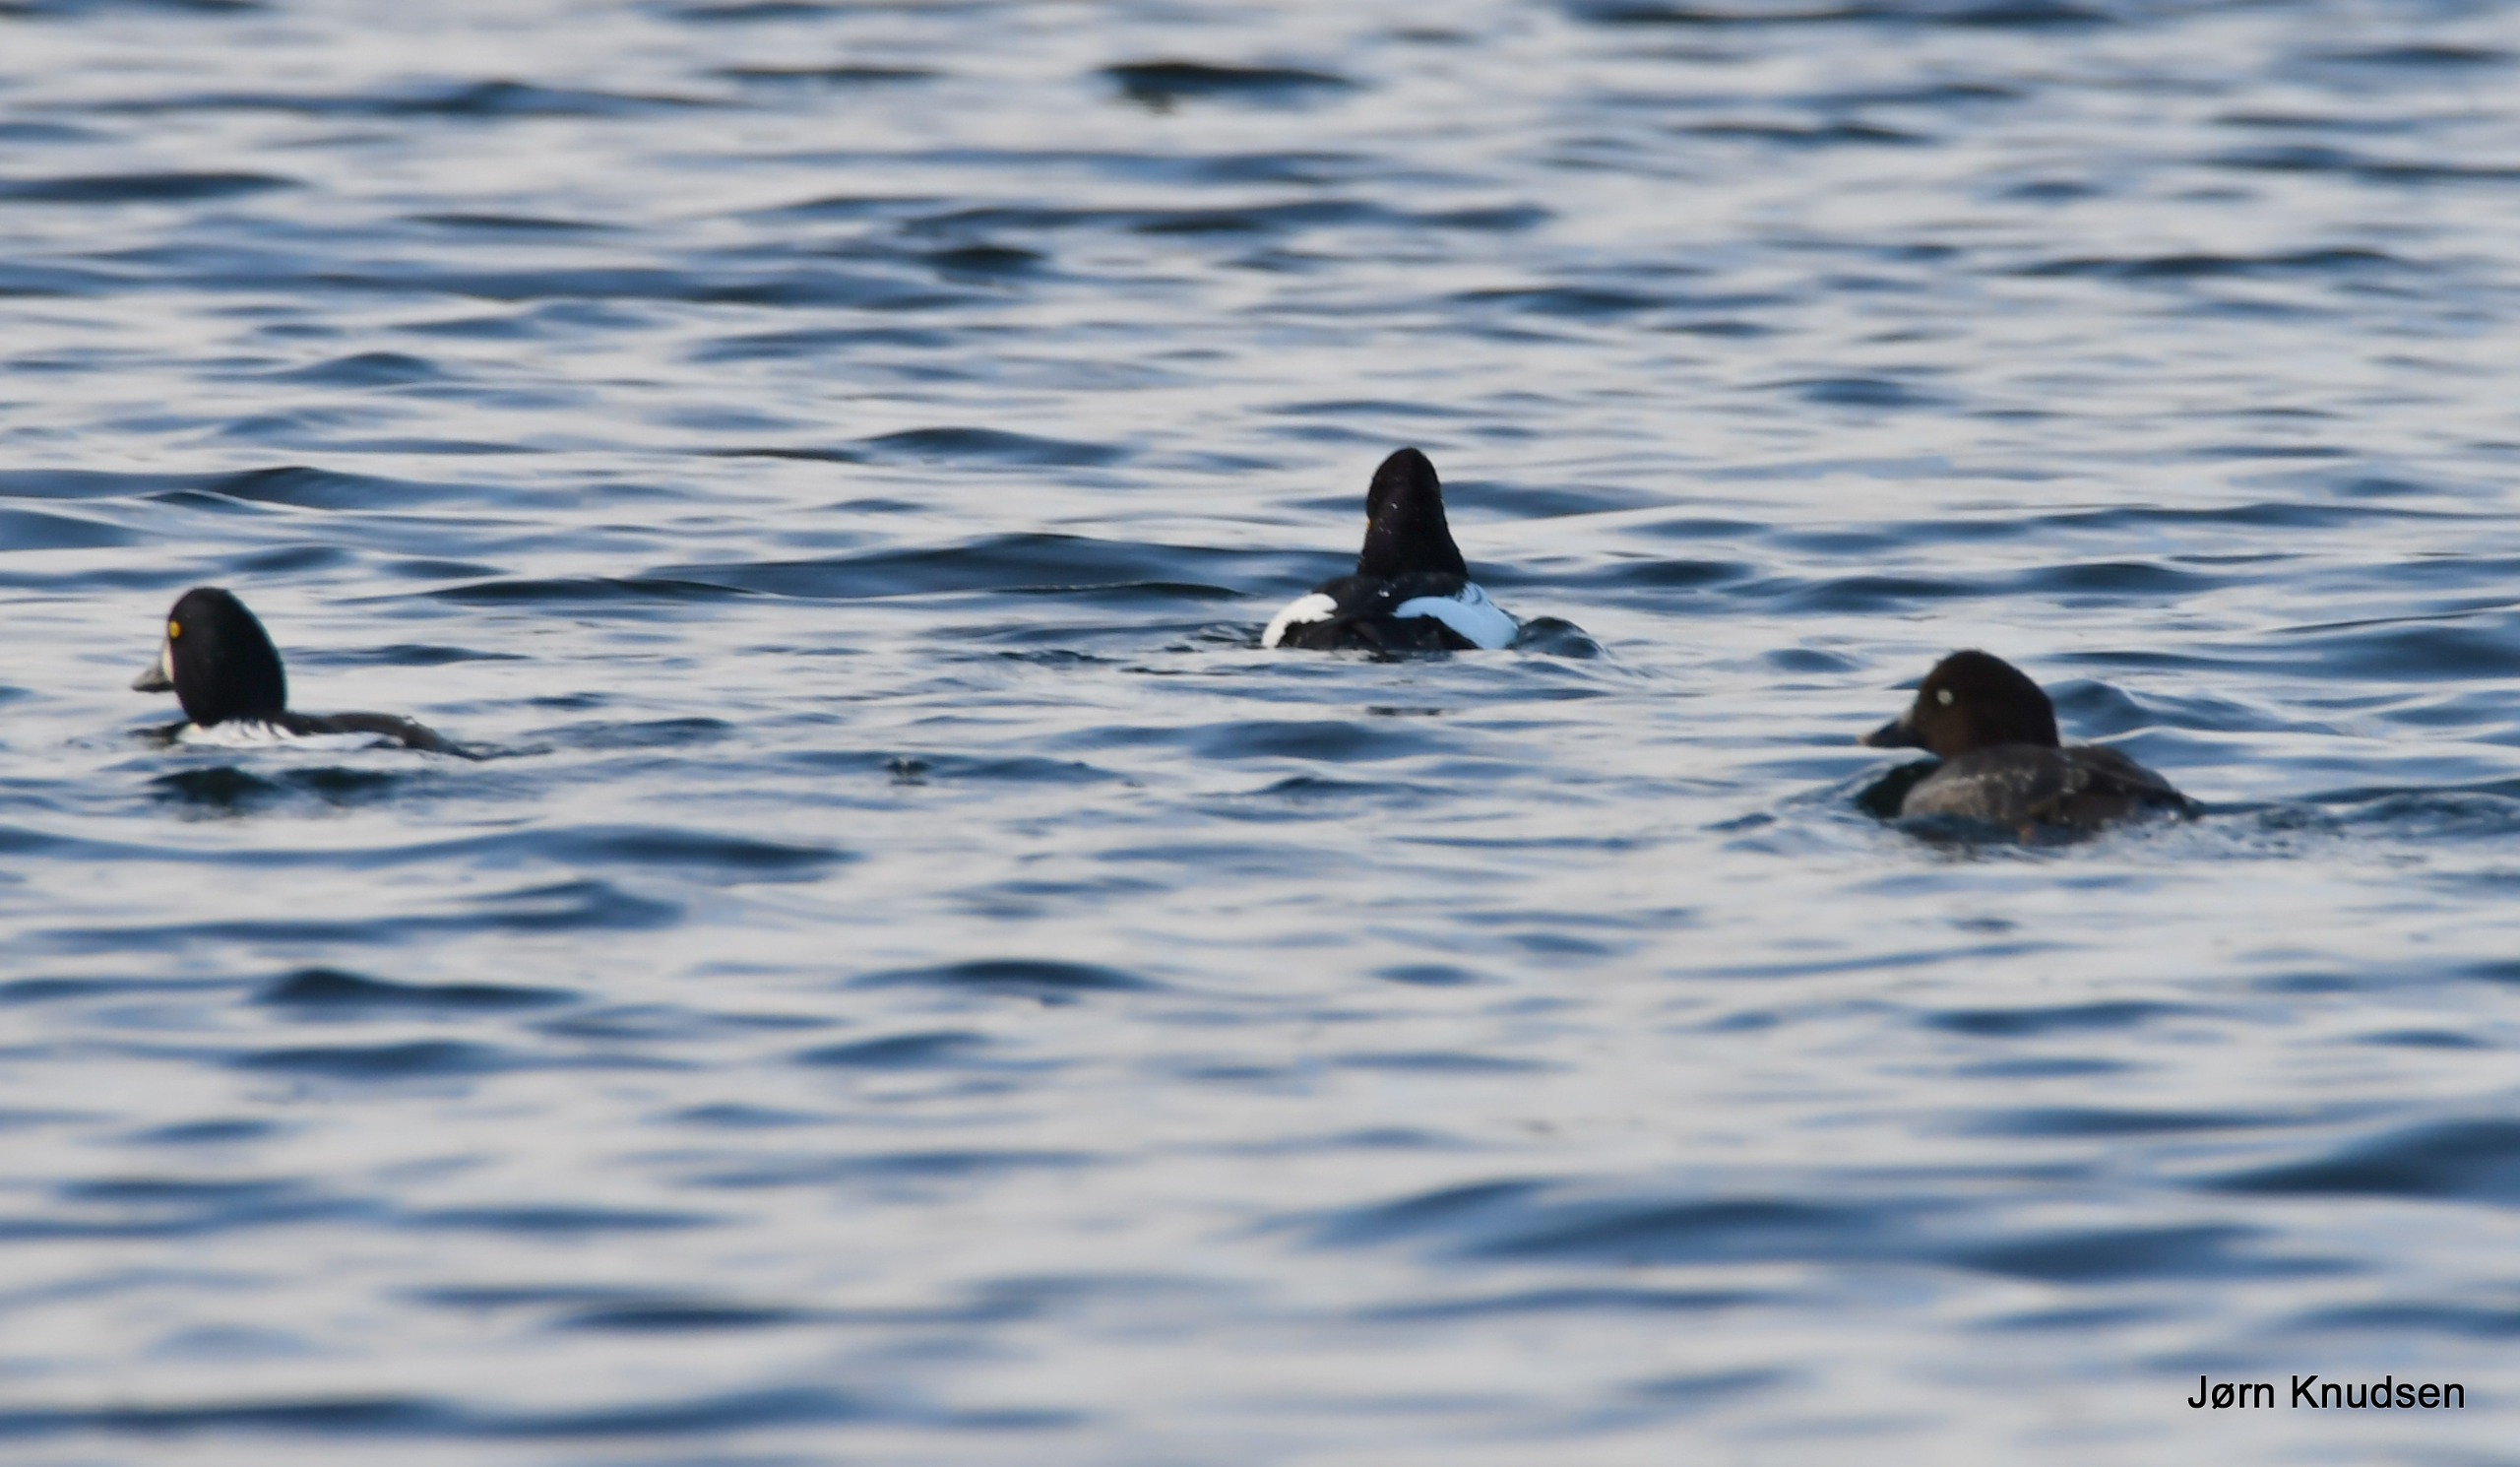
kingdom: Animalia
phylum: Chordata
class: Aves
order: Anseriformes
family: Anatidae
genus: Bucephala
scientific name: Bucephala clangula
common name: Hvinand
